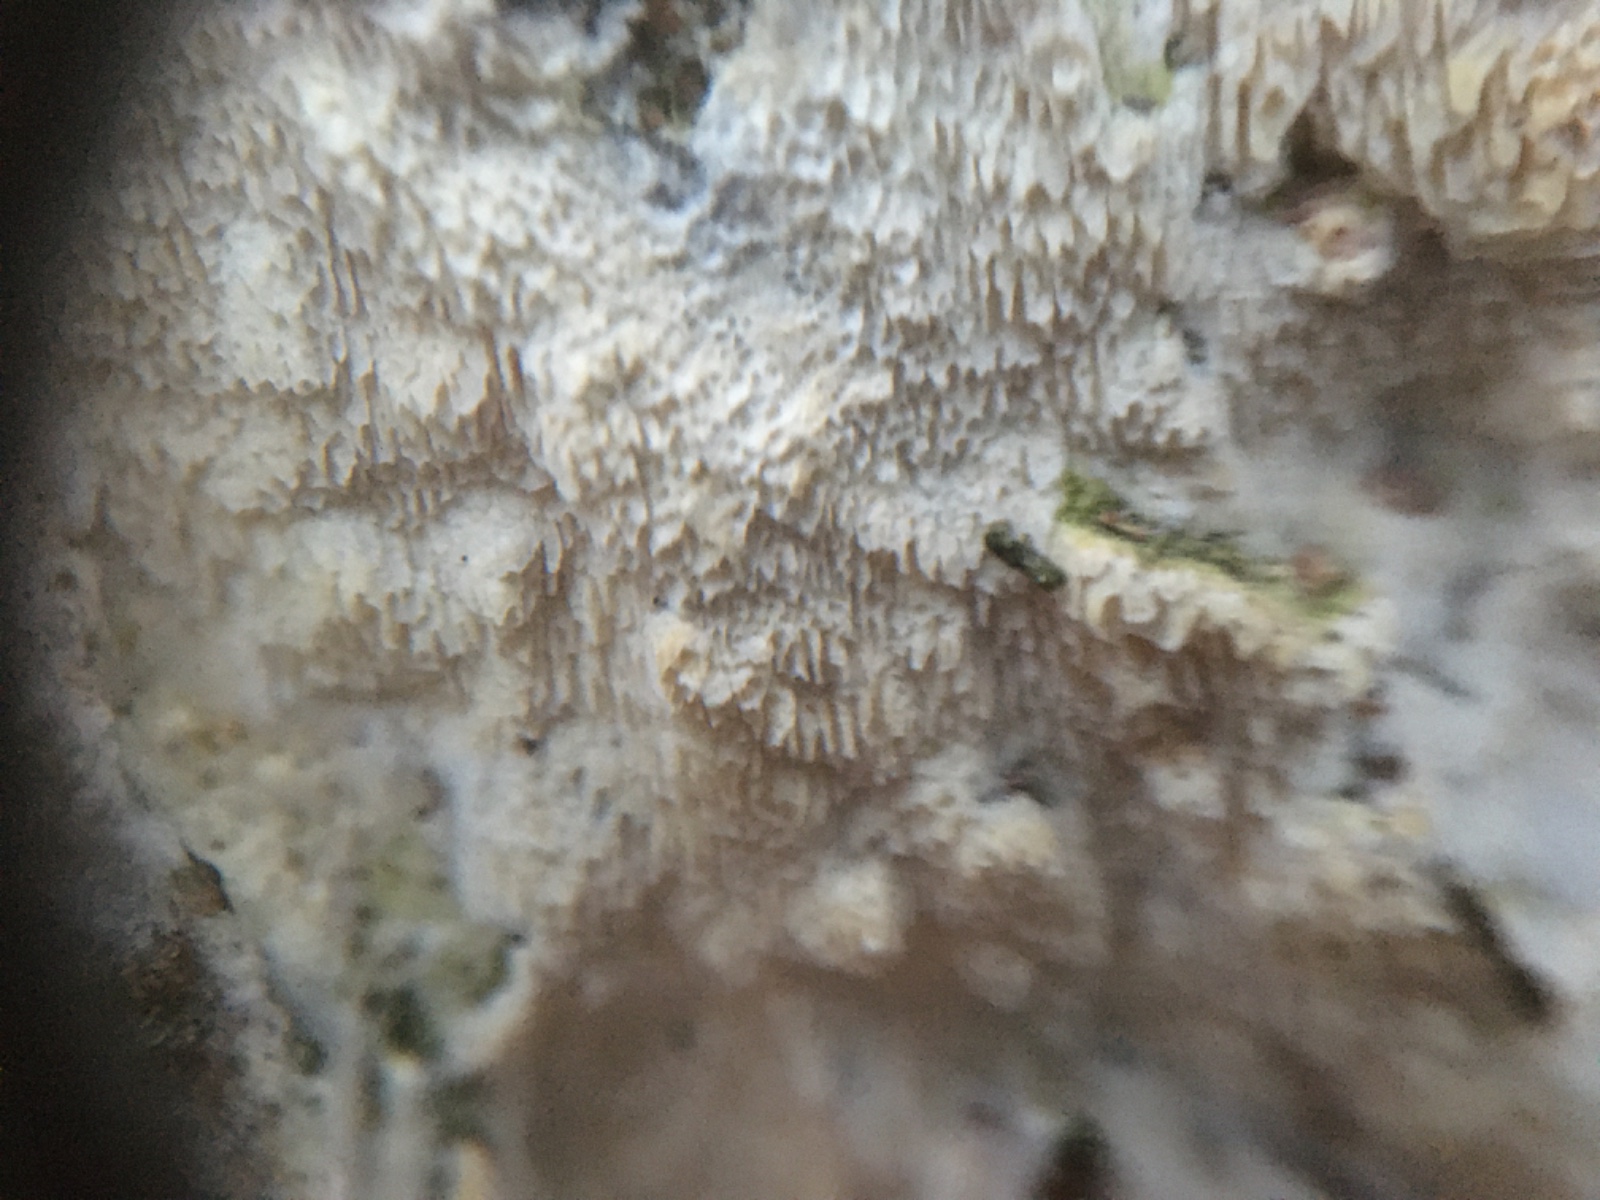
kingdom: Fungi
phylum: Basidiomycota
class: Agaricomycetes
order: Polyporales
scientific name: Polyporales
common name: poresvampordenen
